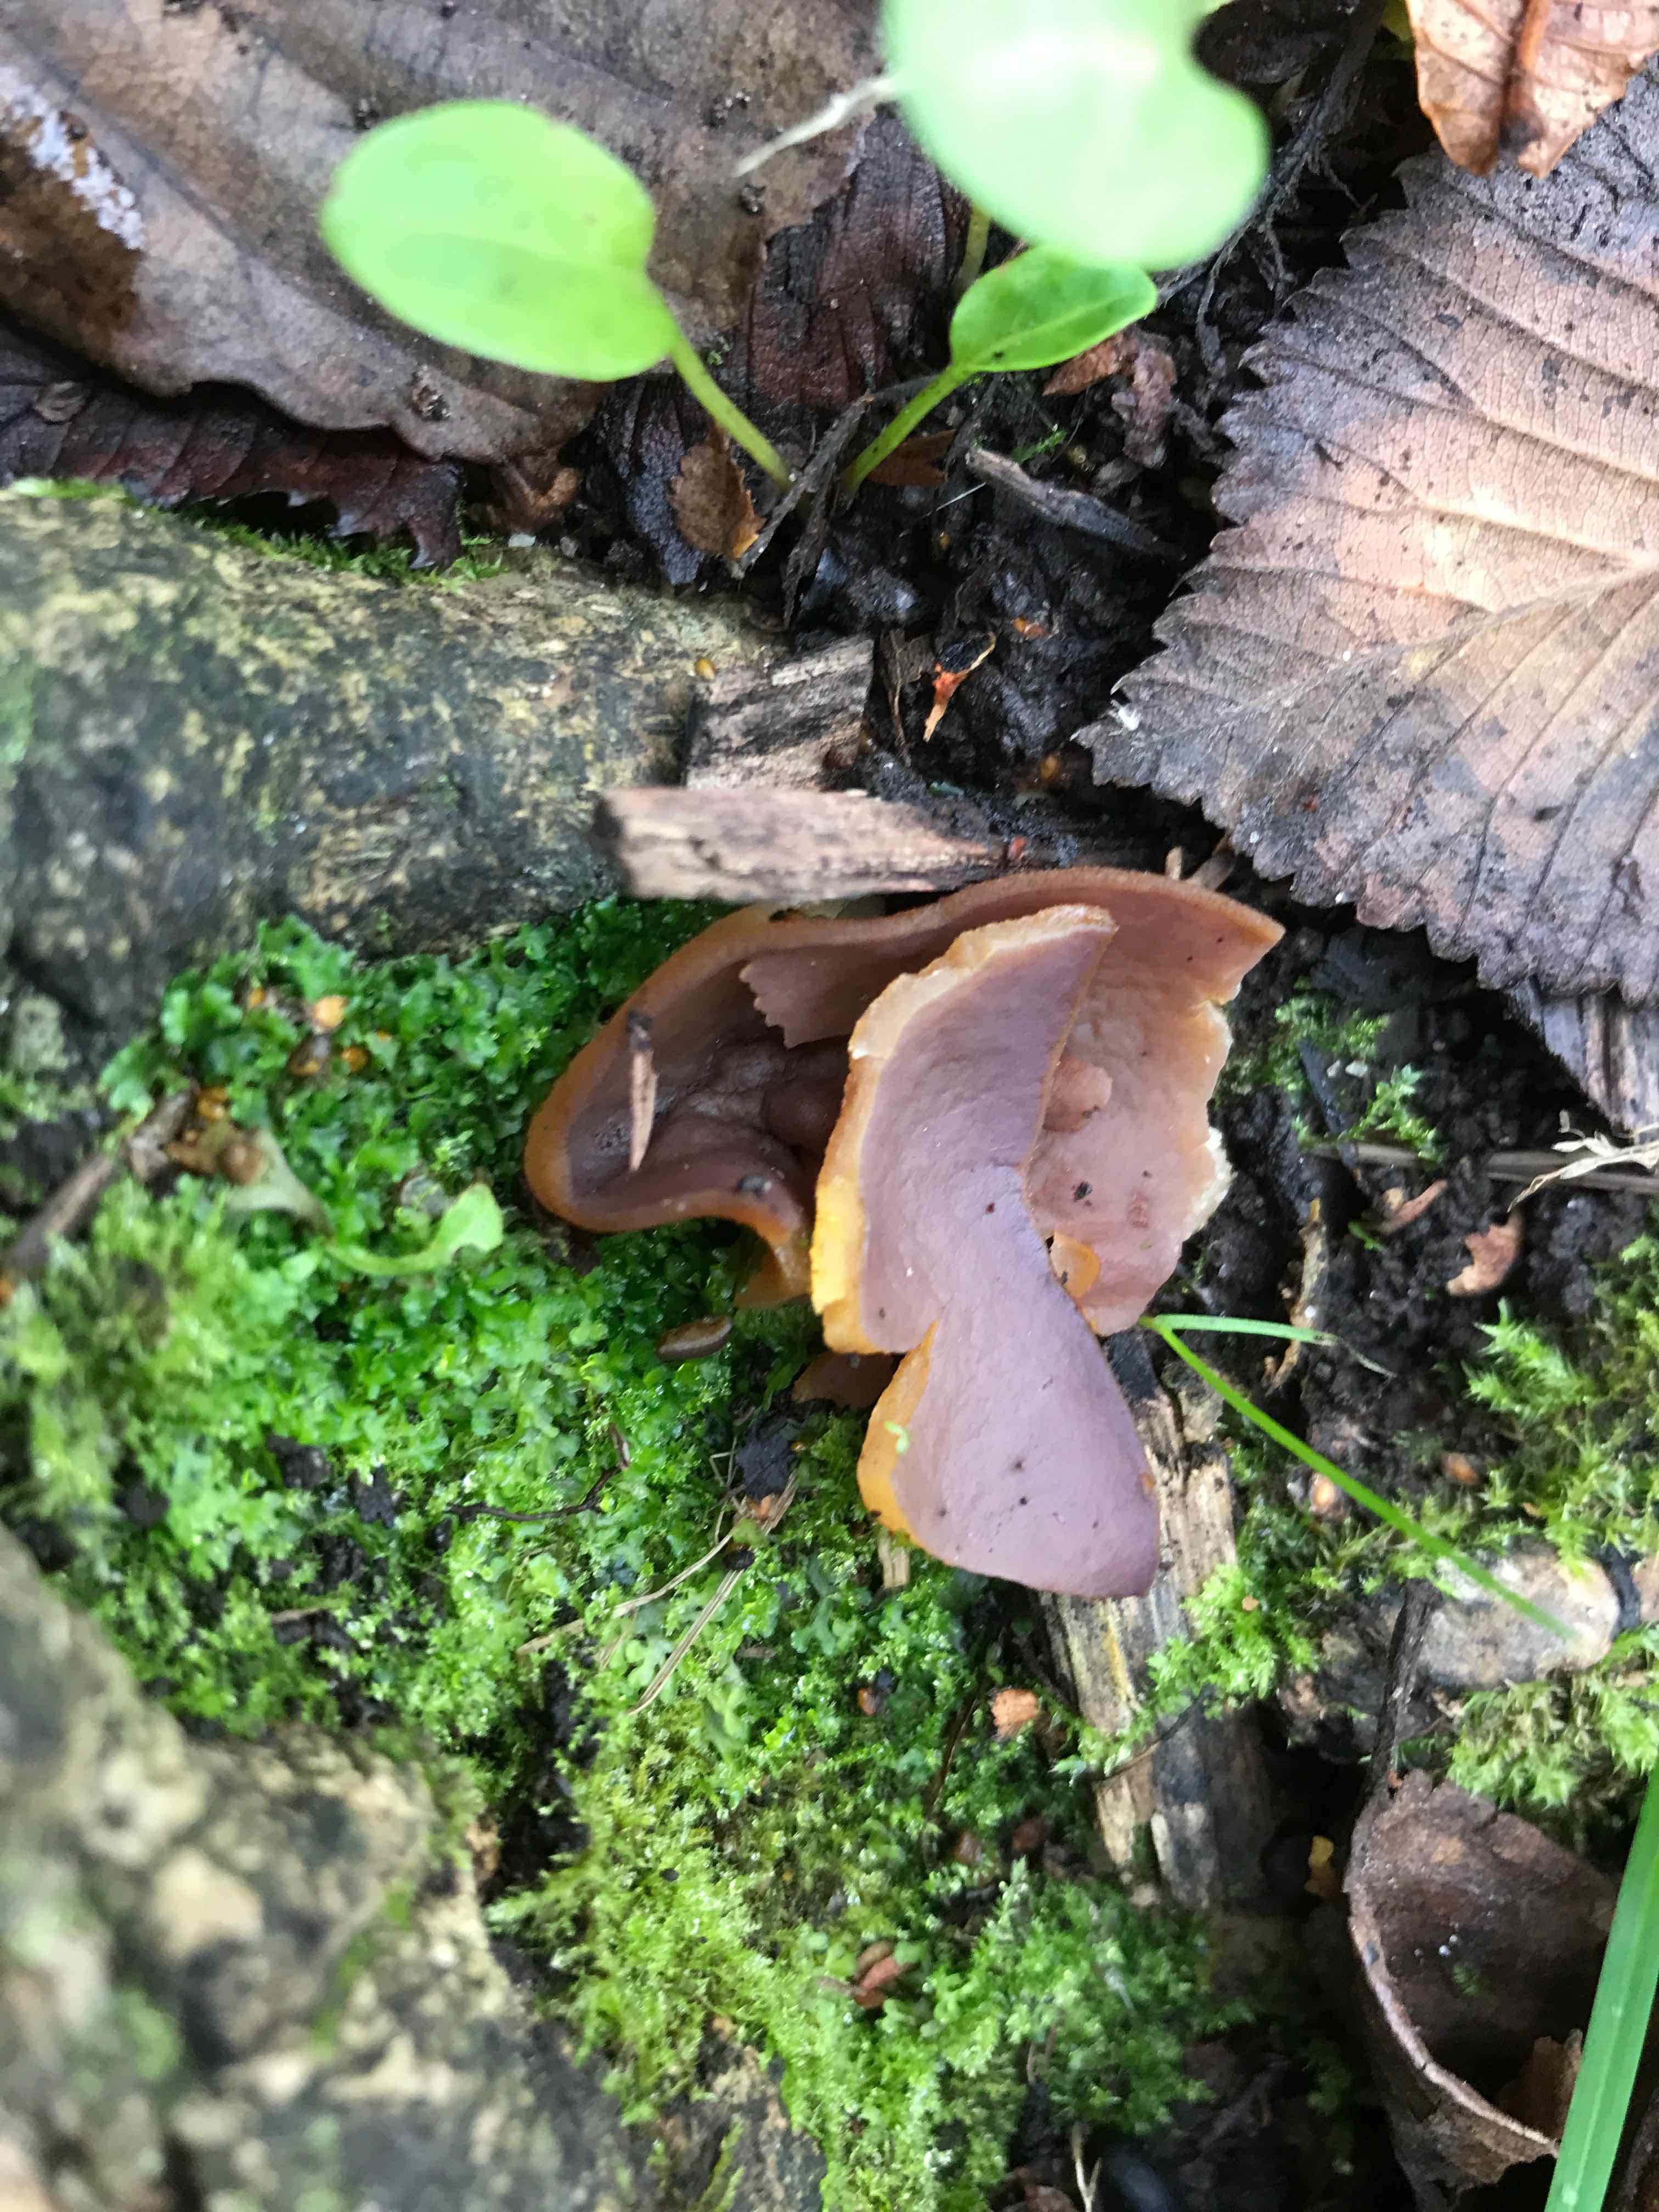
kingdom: Fungi
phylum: Ascomycota
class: Pezizomycetes
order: Pezizales
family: Pezizaceae
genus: Paragalactinia
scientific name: Paragalactinia michelii
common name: gulkødet bægersvamp
